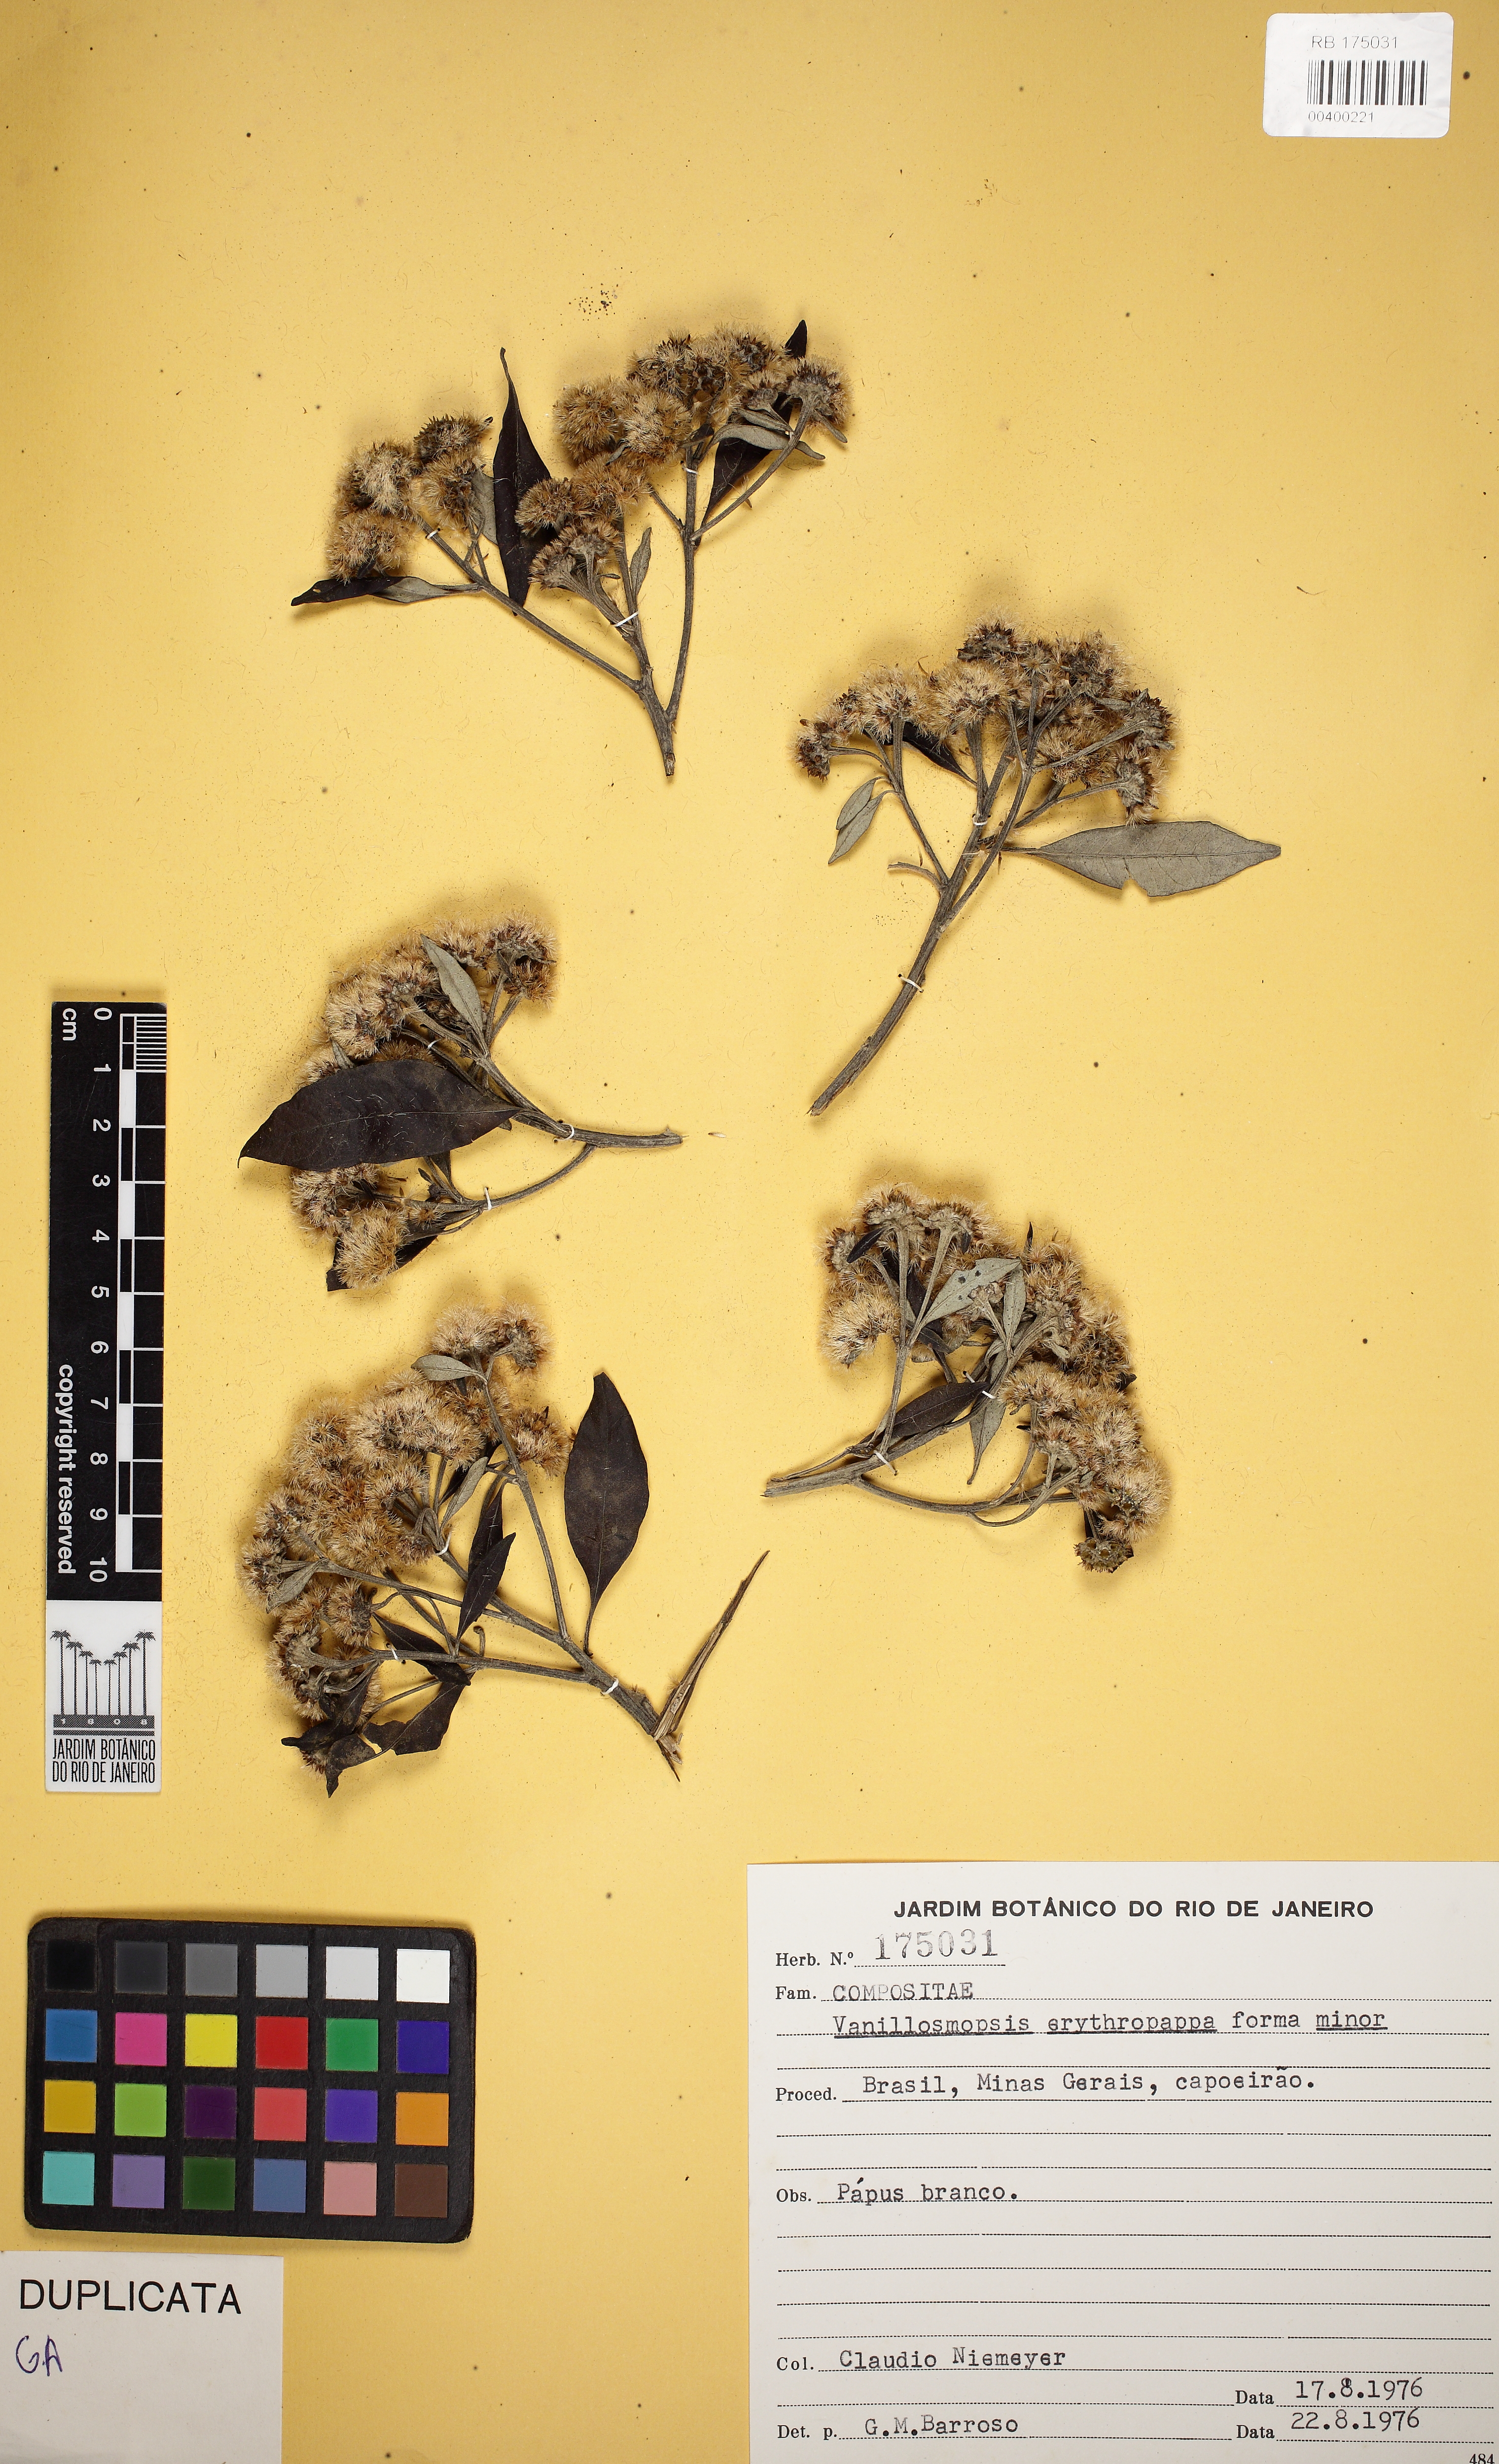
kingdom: Plantae
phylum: Tracheophyta
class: Magnoliopsida
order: Asterales
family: Asteraceae
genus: Eremanthus
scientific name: Eremanthus erythropappus
